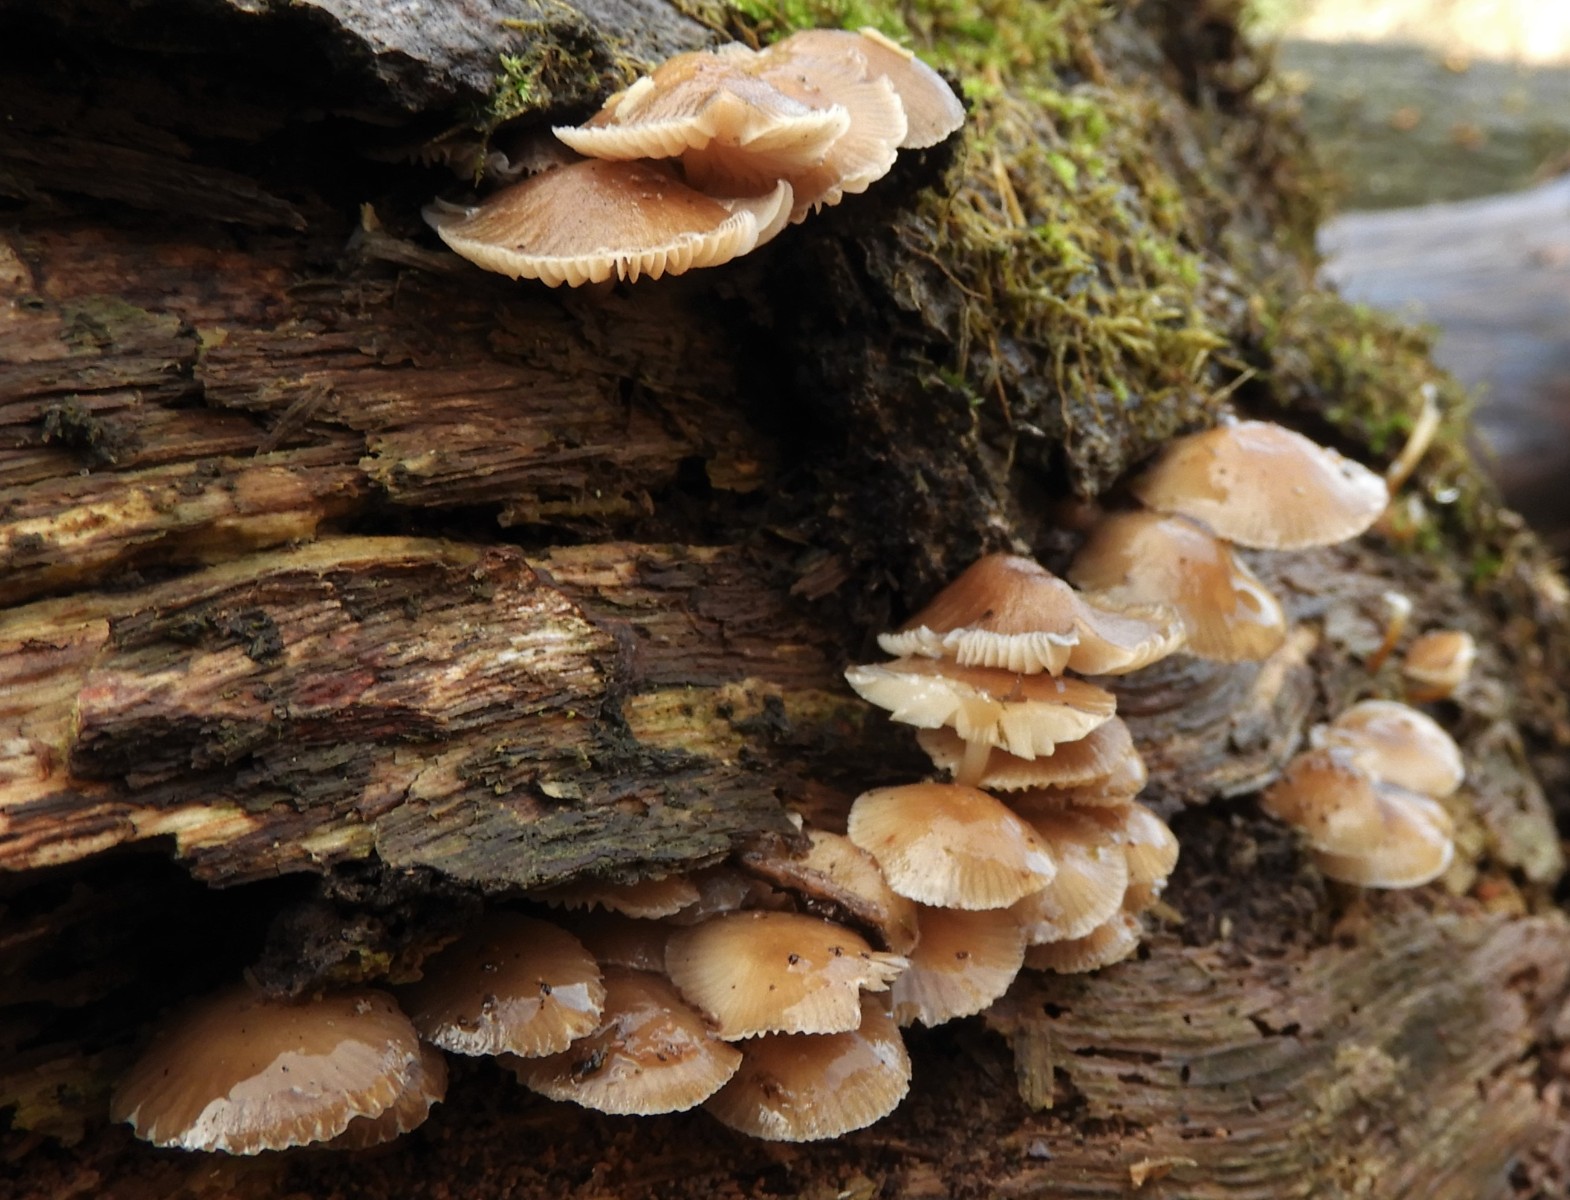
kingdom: Fungi
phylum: Basidiomycota
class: Agaricomycetes
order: Agaricales
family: Mycenaceae
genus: Mycena
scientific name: Mycena
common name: huesvamp
